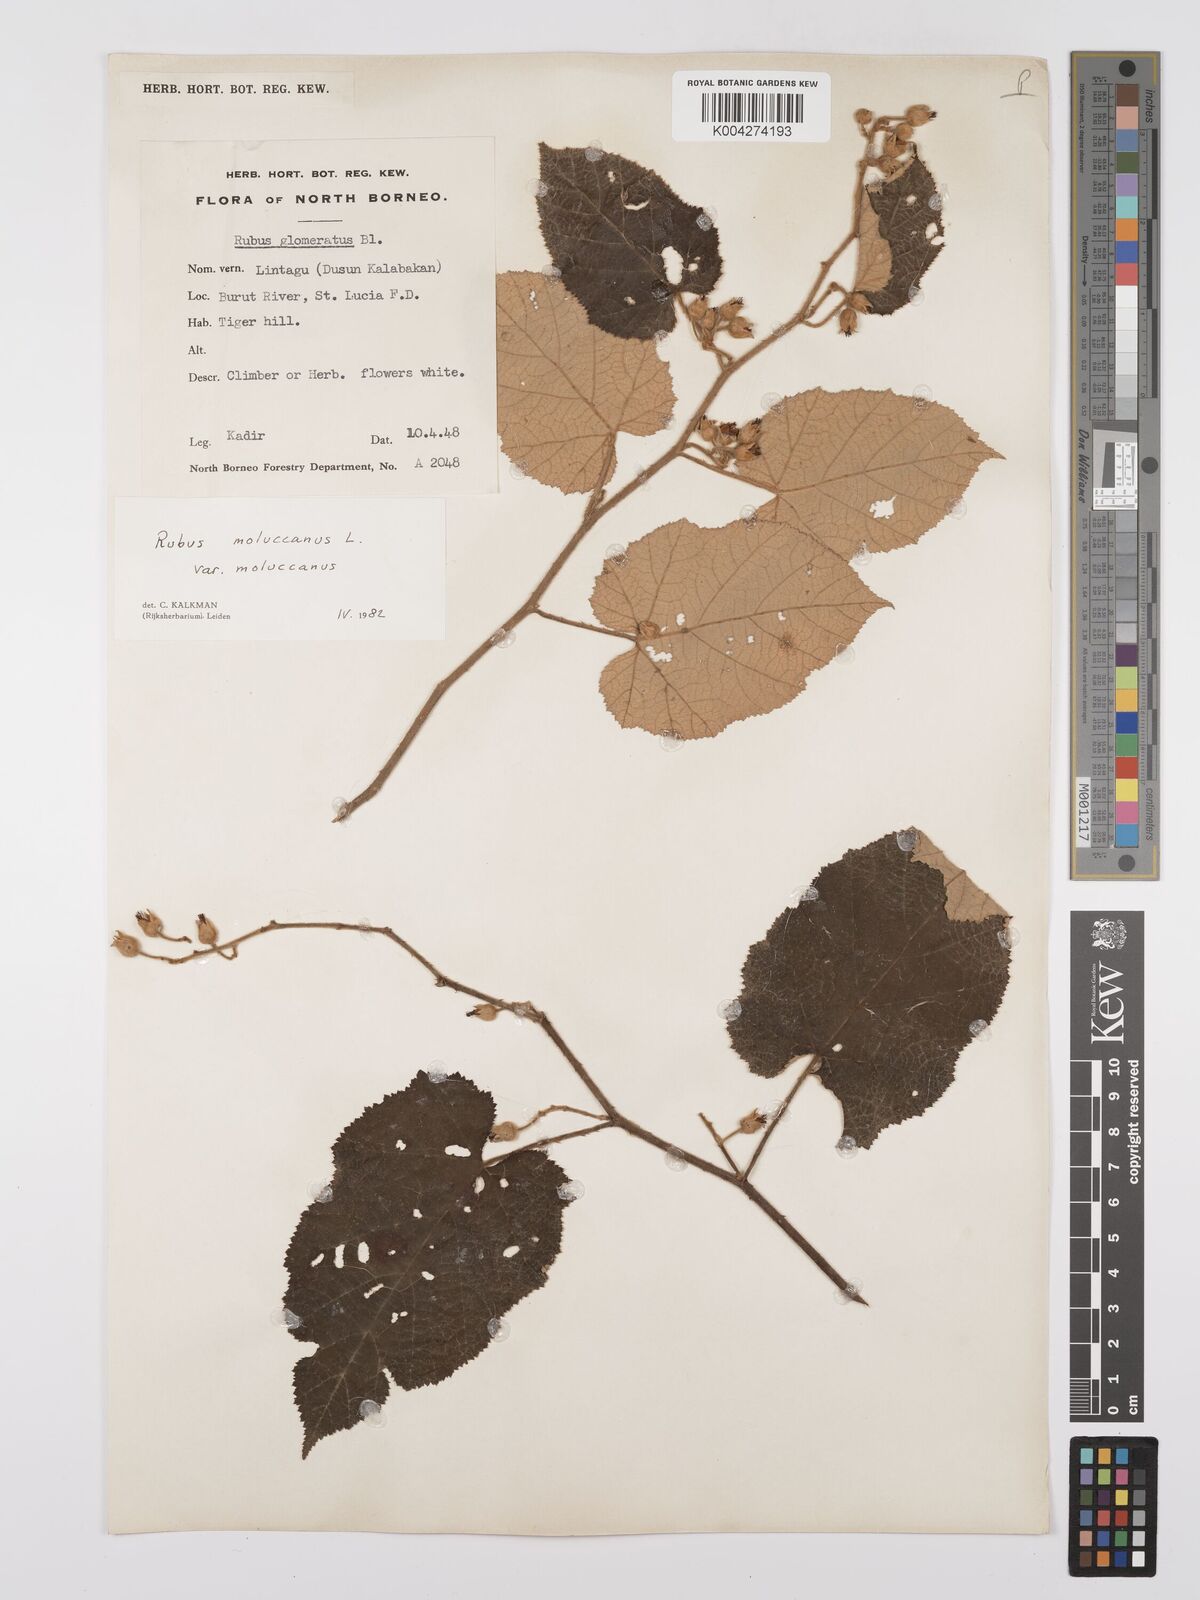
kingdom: Plantae
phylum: Tracheophyta
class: Magnoliopsida
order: Rosales
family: Rosaceae
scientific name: Rosaceae
